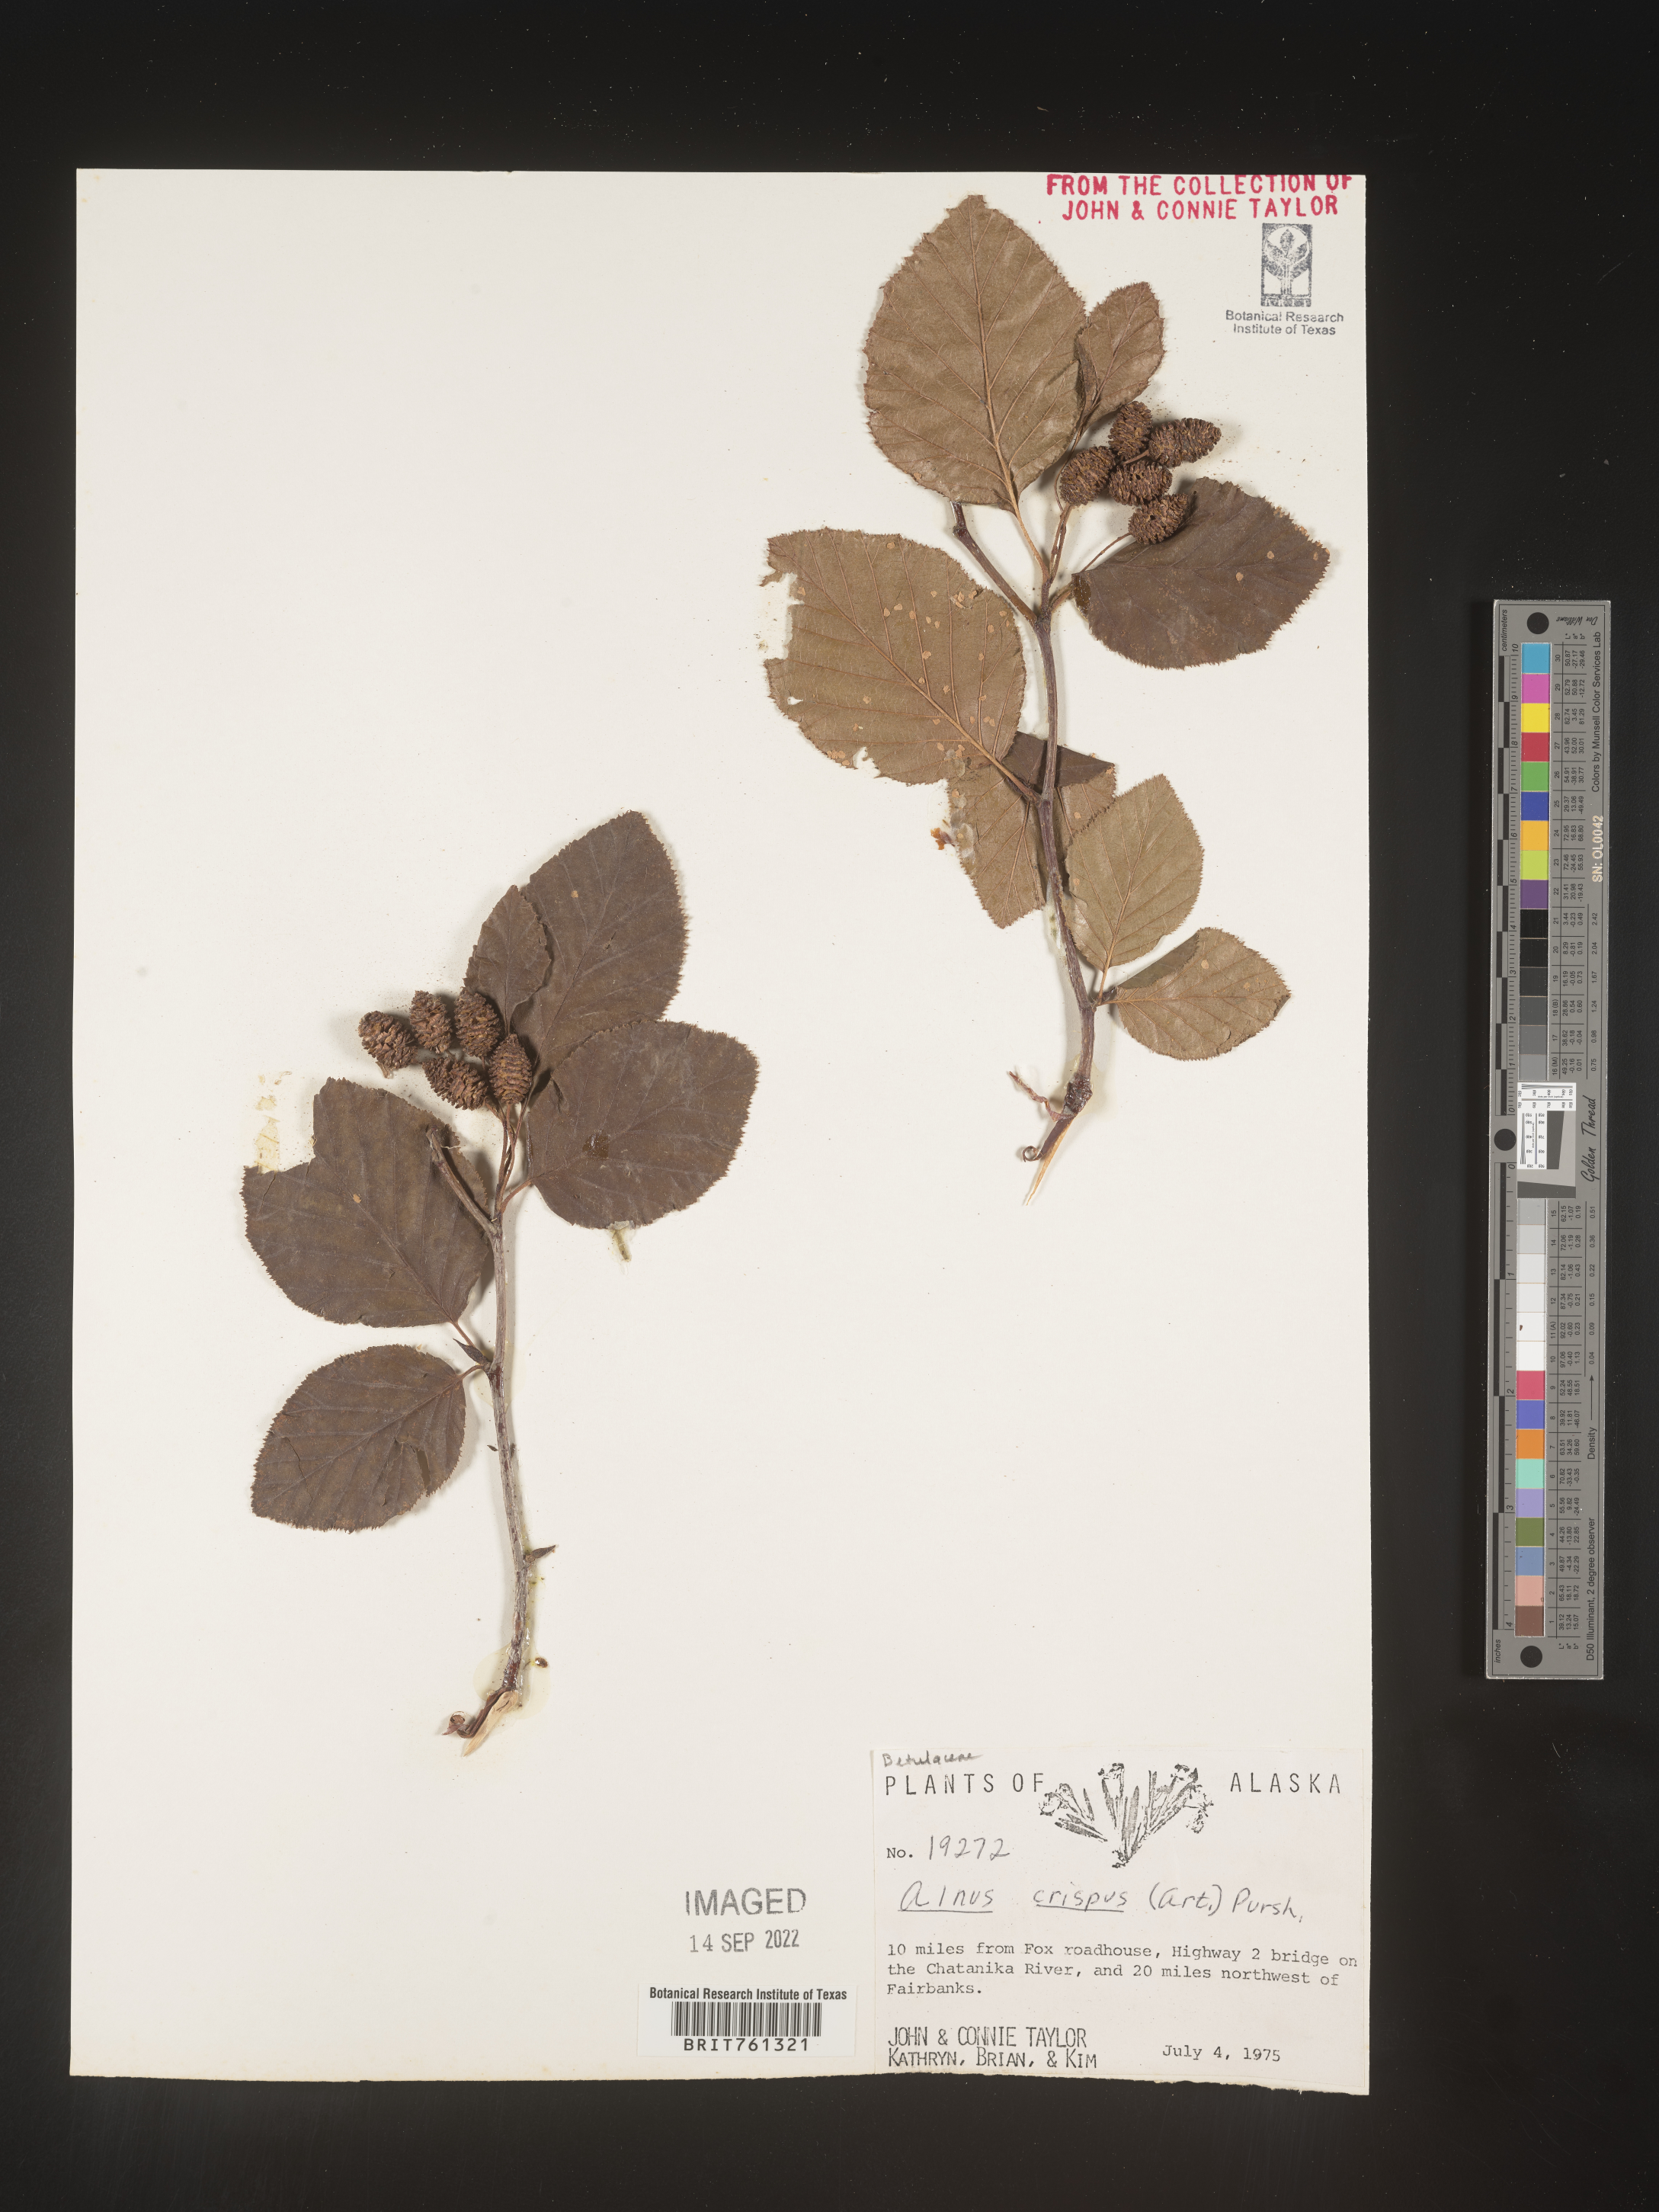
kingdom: Plantae
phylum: Tracheophyta
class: Magnoliopsida
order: Fagales
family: Betulaceae
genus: Alnus
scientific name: Alnus
